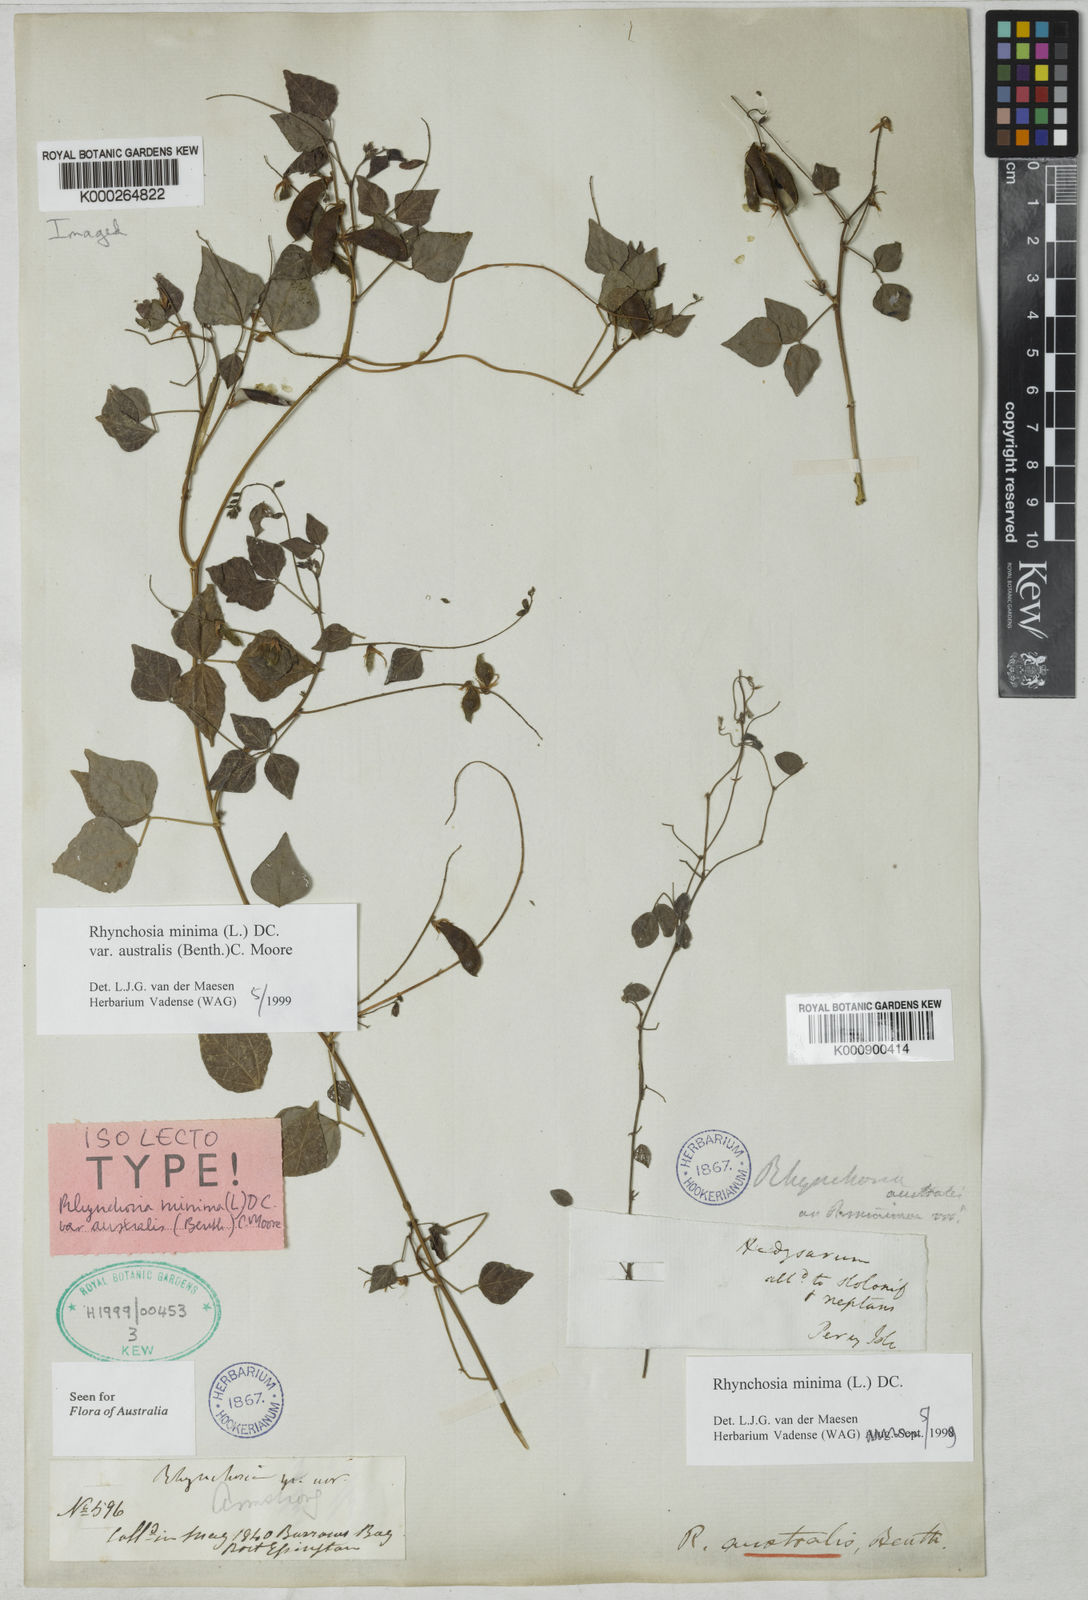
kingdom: Plantae
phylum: Tracheophyta
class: Magnoliopsida
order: Fabales
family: Fabaceae
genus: Rhynchosia
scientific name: Rhynchosia australis
